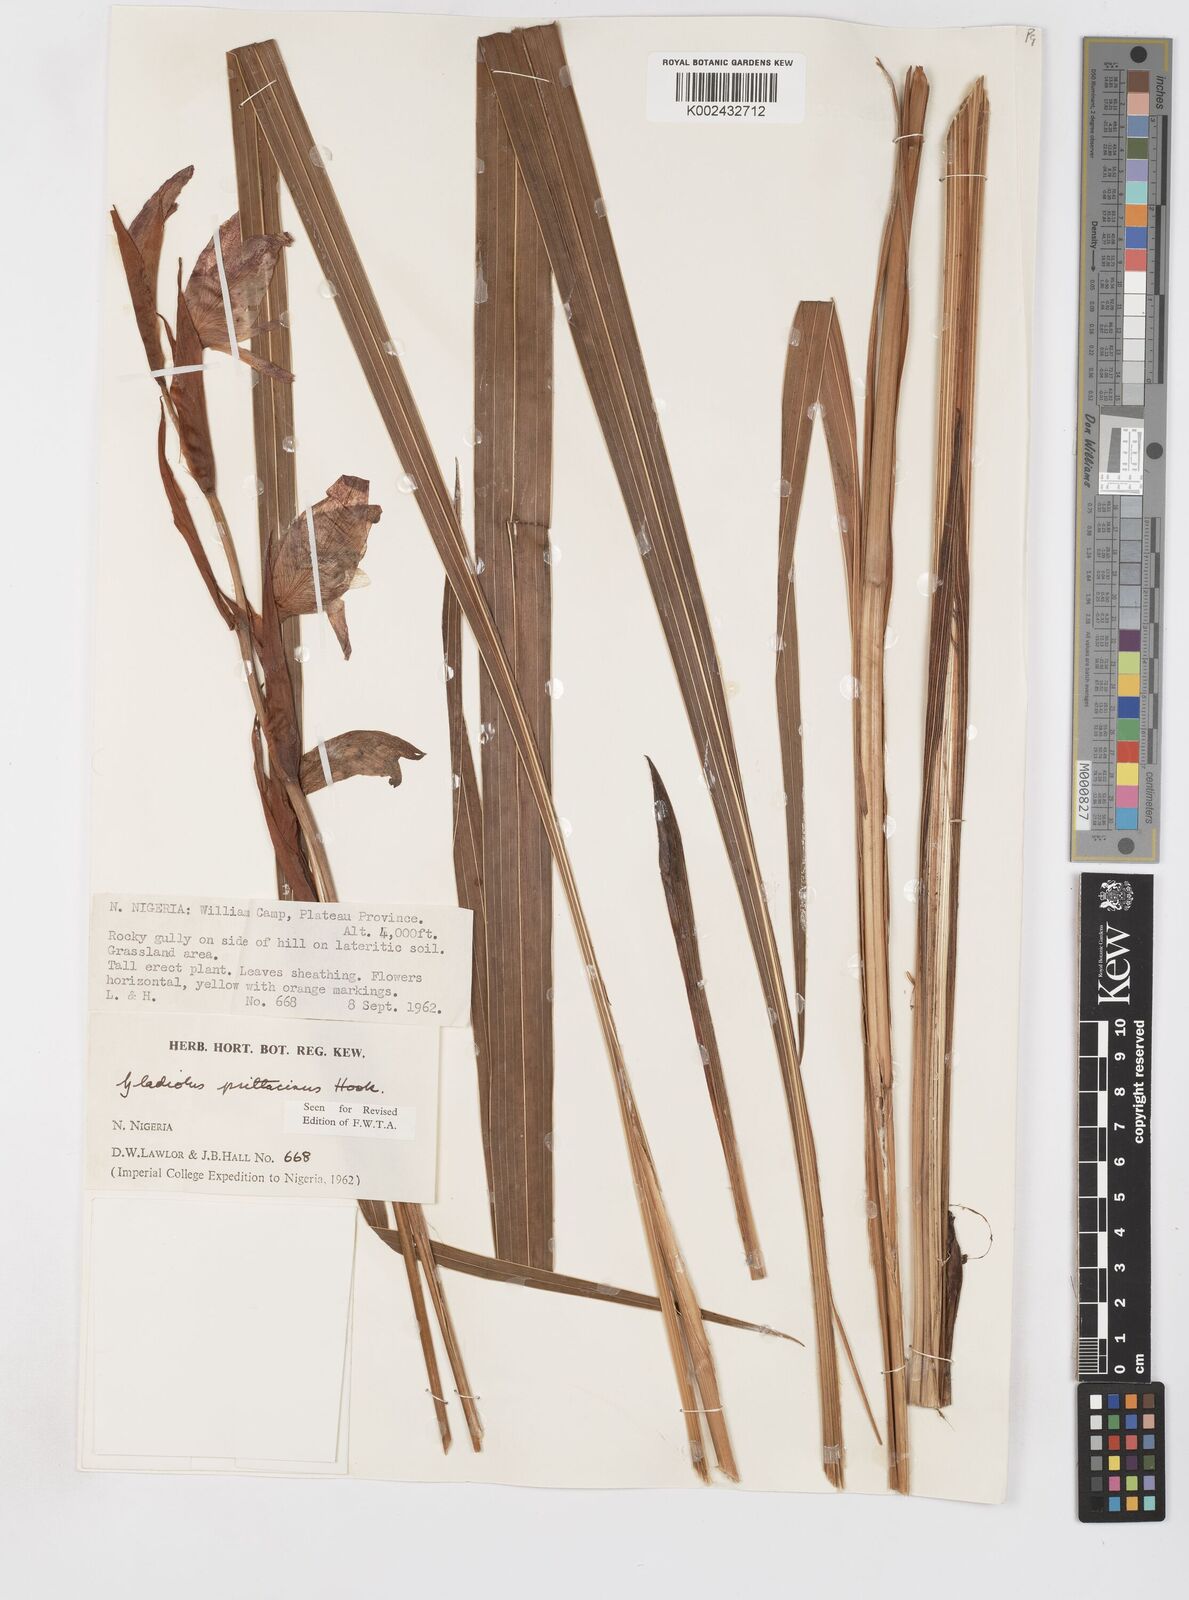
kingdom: Plantae
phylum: Tracheophyta
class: Liliopsida
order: Asparagales
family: Iridaceae
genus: Gladiolus
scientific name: Gladiolus dalenii
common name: Cornflag
